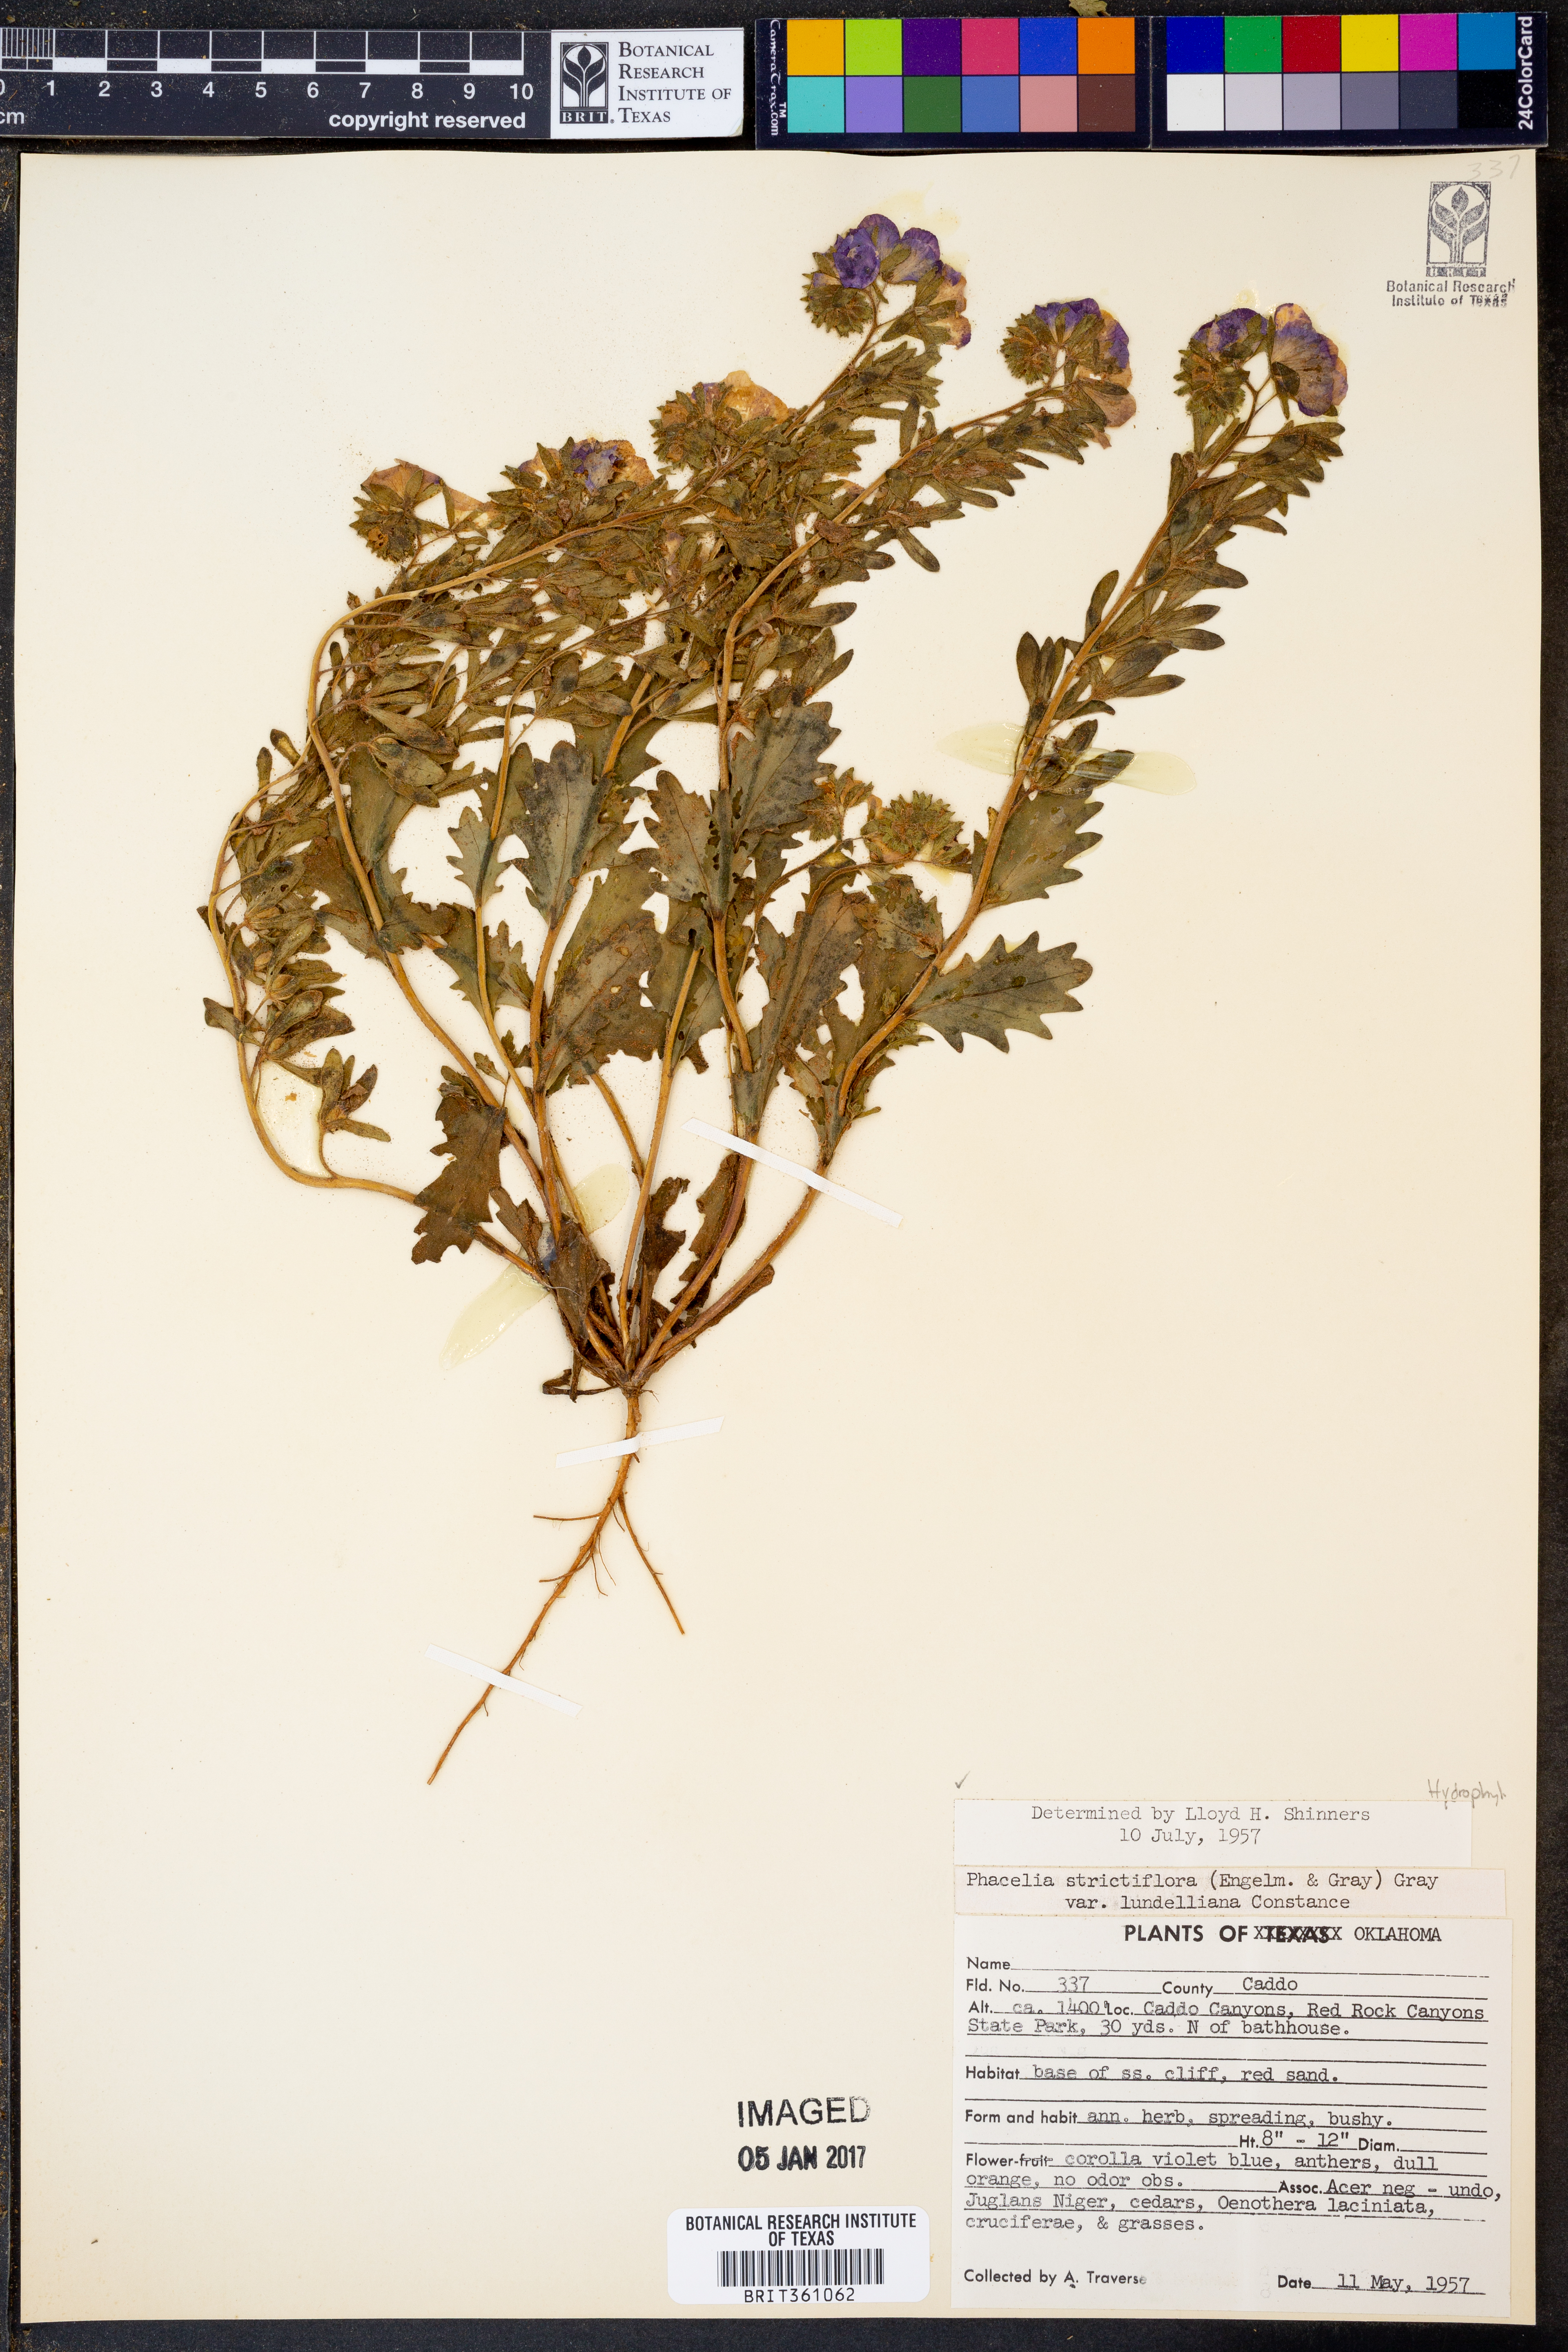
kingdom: Plantae
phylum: Tracheophyta
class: Magnoliopsida
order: Boraginales
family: Hydrophyllaceae
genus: Phacelia
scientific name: Phacelia strictiflora
